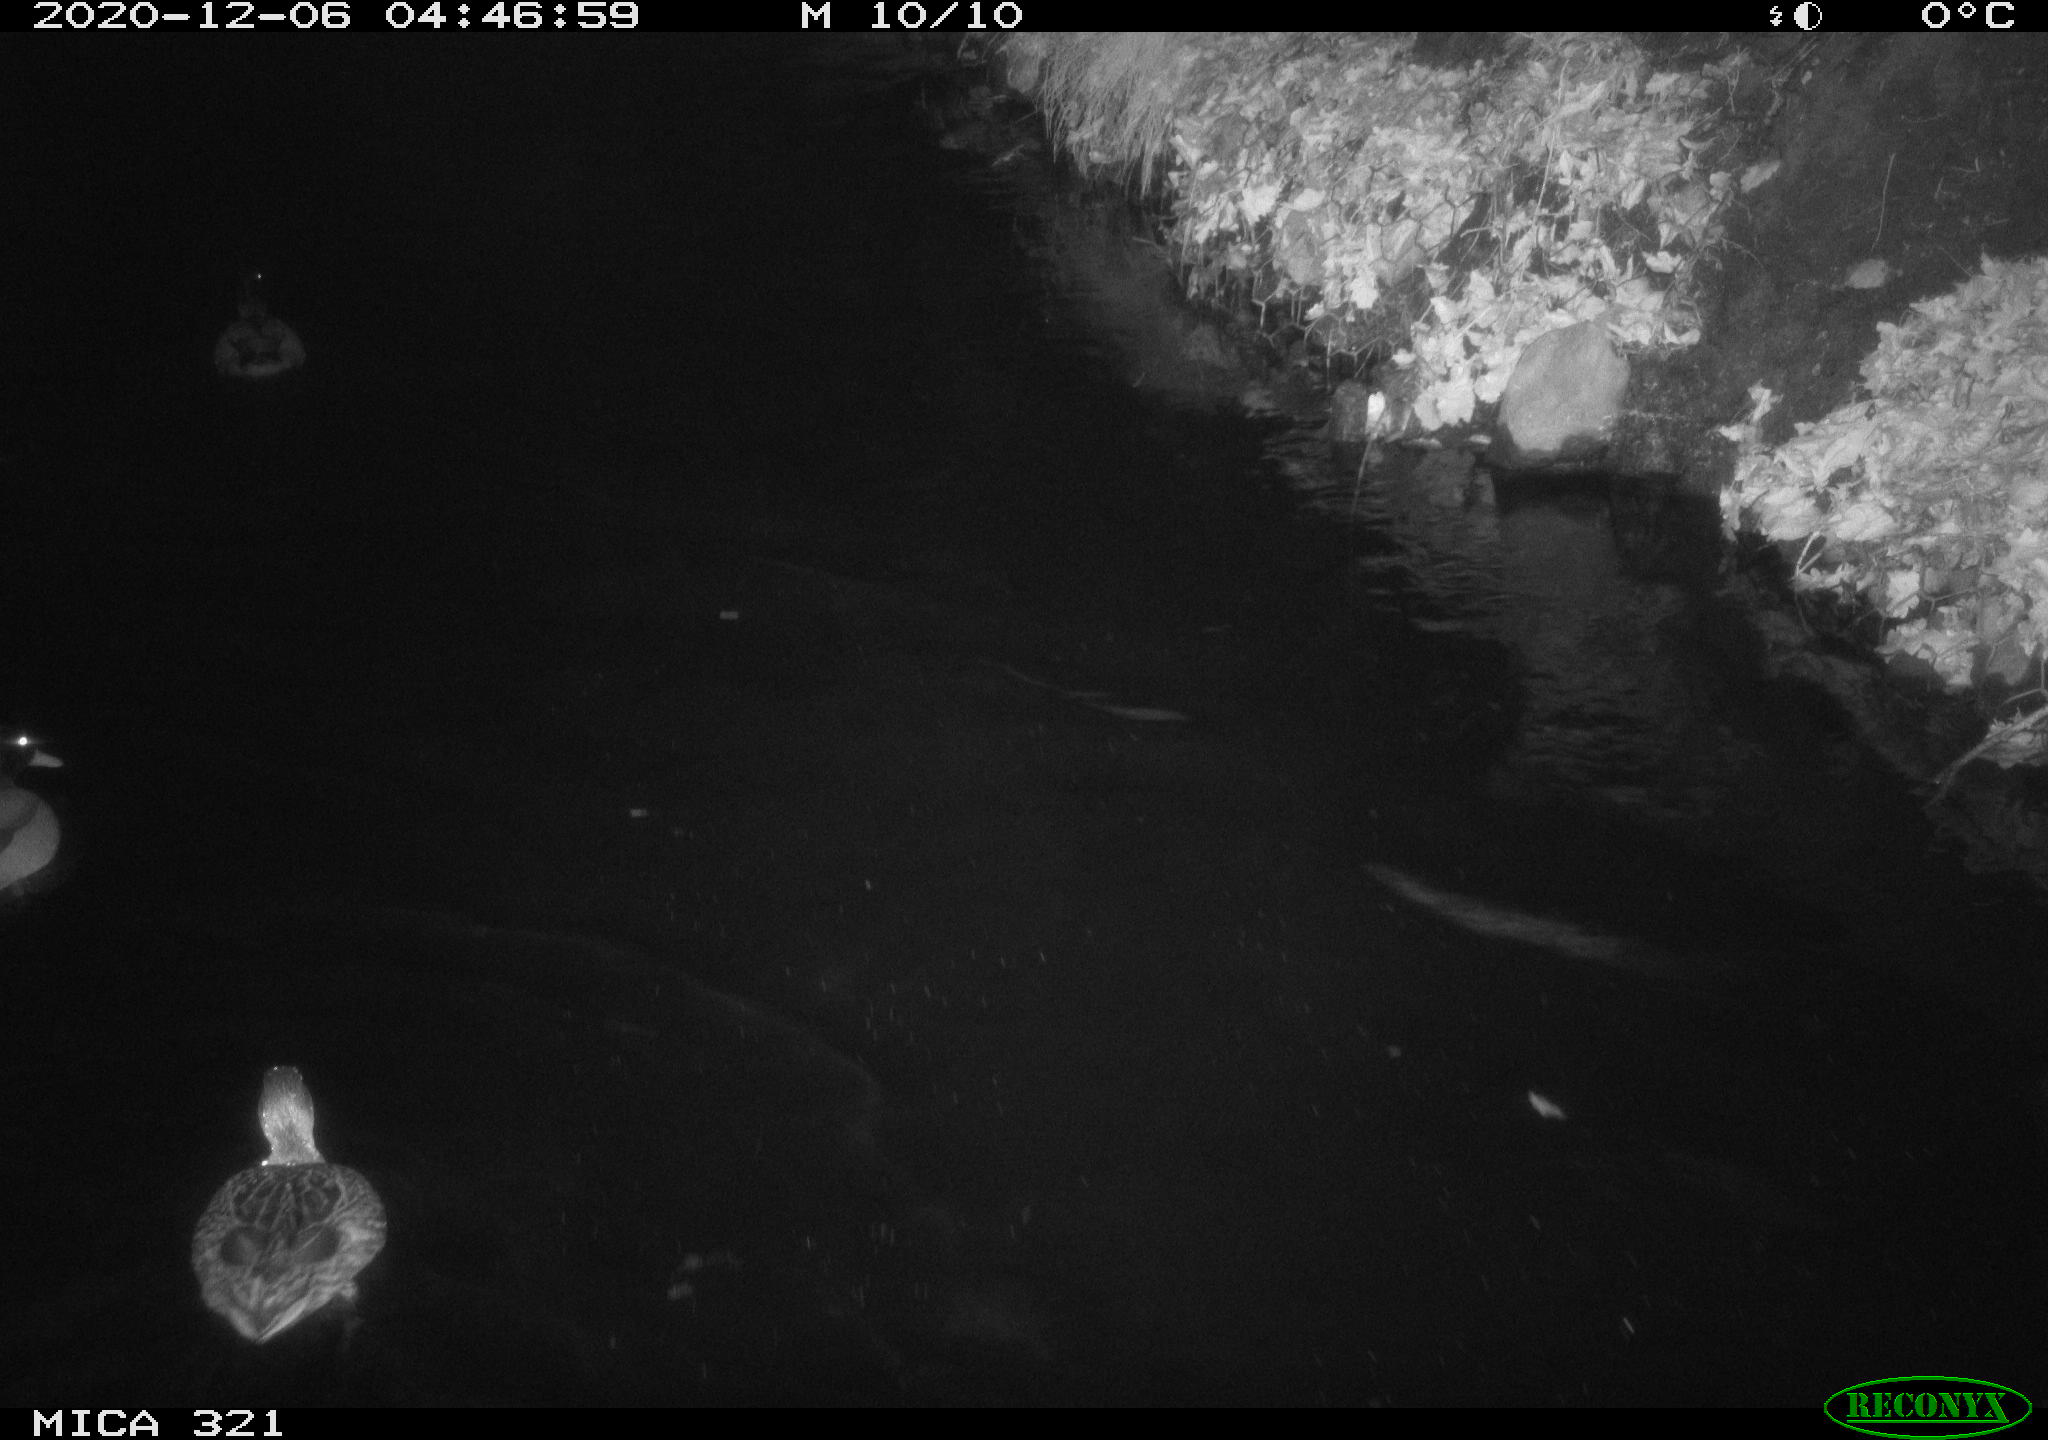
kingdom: Animalia
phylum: Chordata
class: Aves
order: Anseriformes
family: Anatidae
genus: Anas
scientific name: Anas platyrhynchos
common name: Mallard
